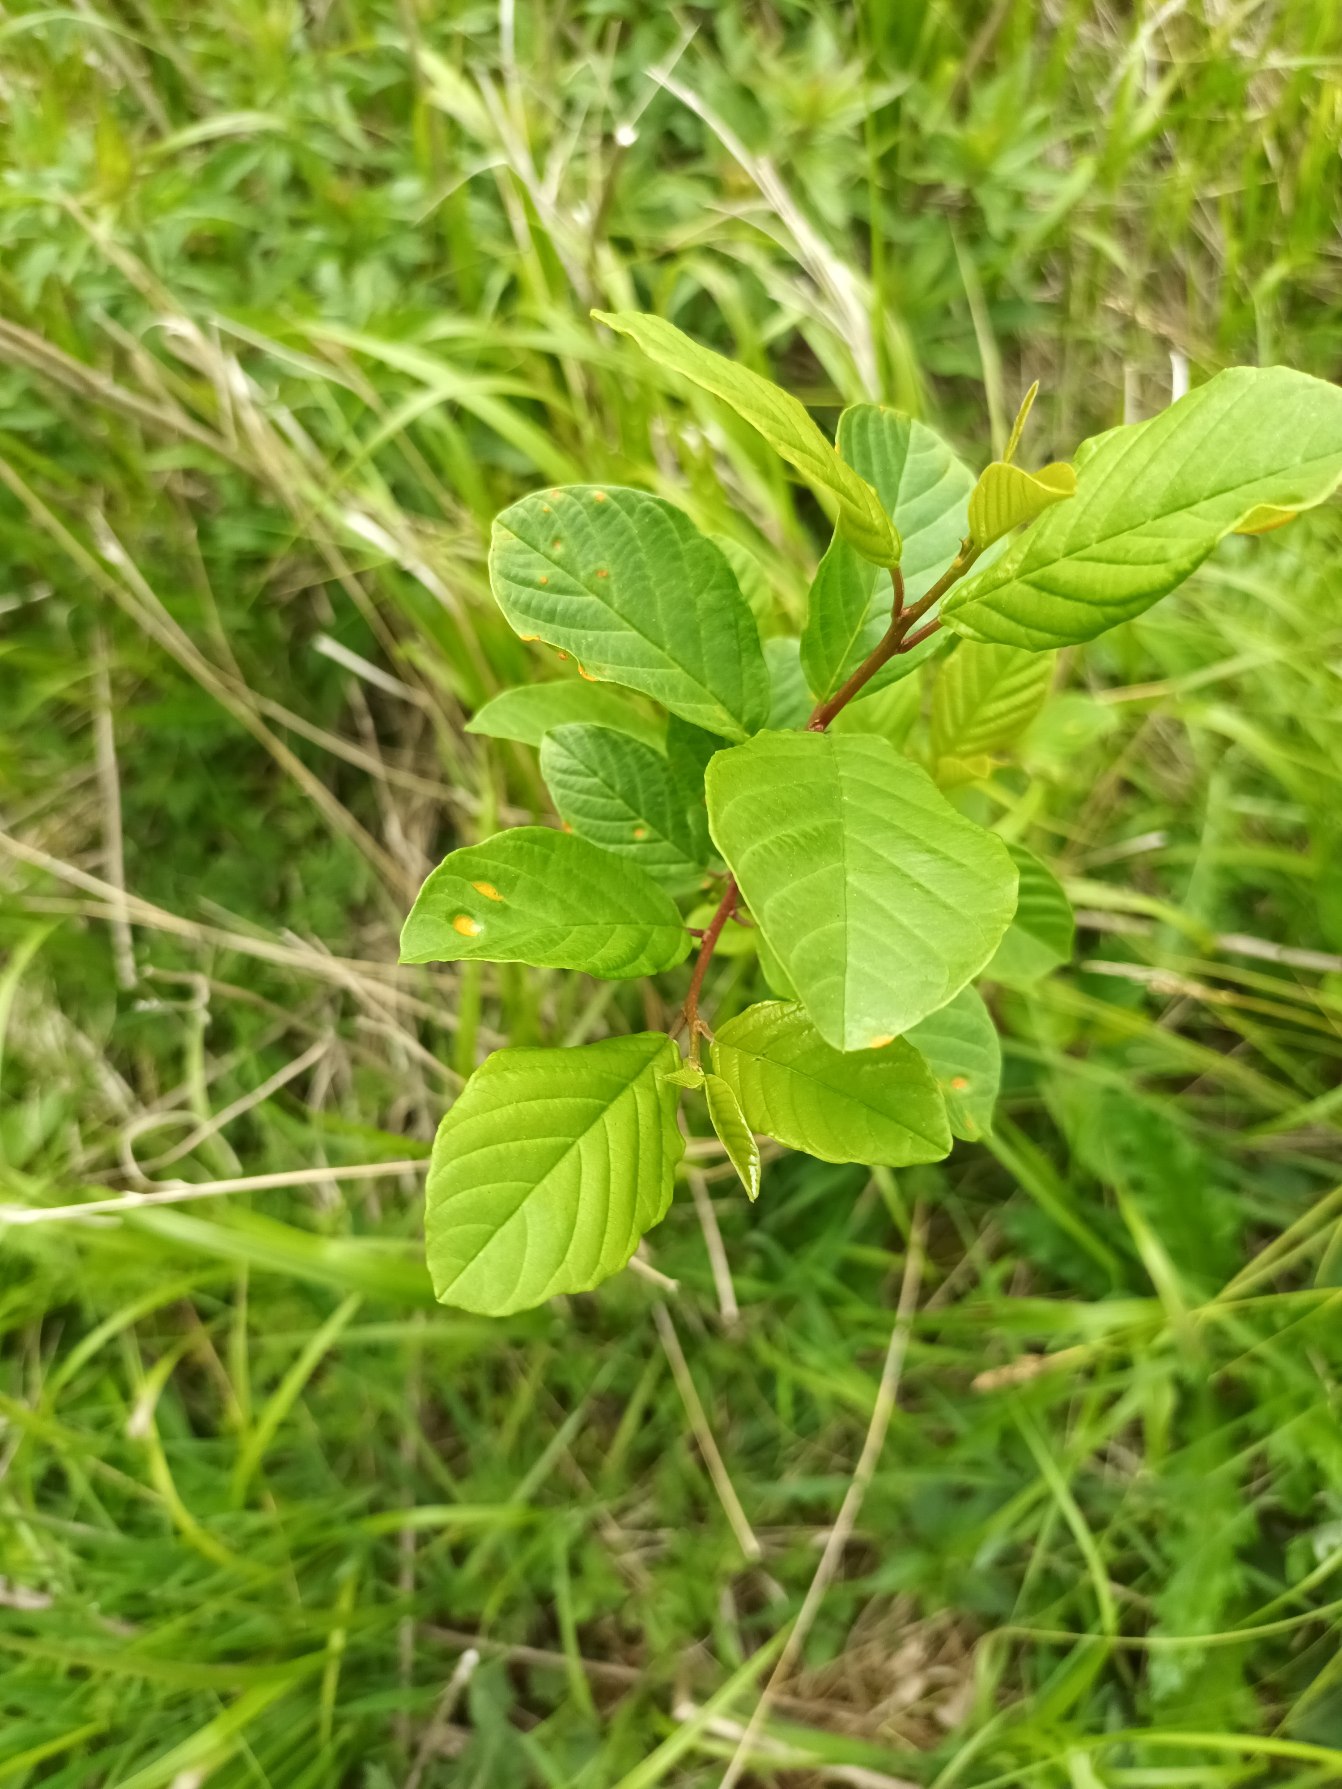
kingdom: Plantae
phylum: Tracheophyta
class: Magnoliopsida
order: Rosales
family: Rhamnaceae
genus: Frangula
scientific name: Frangula alnus
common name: Tørst
